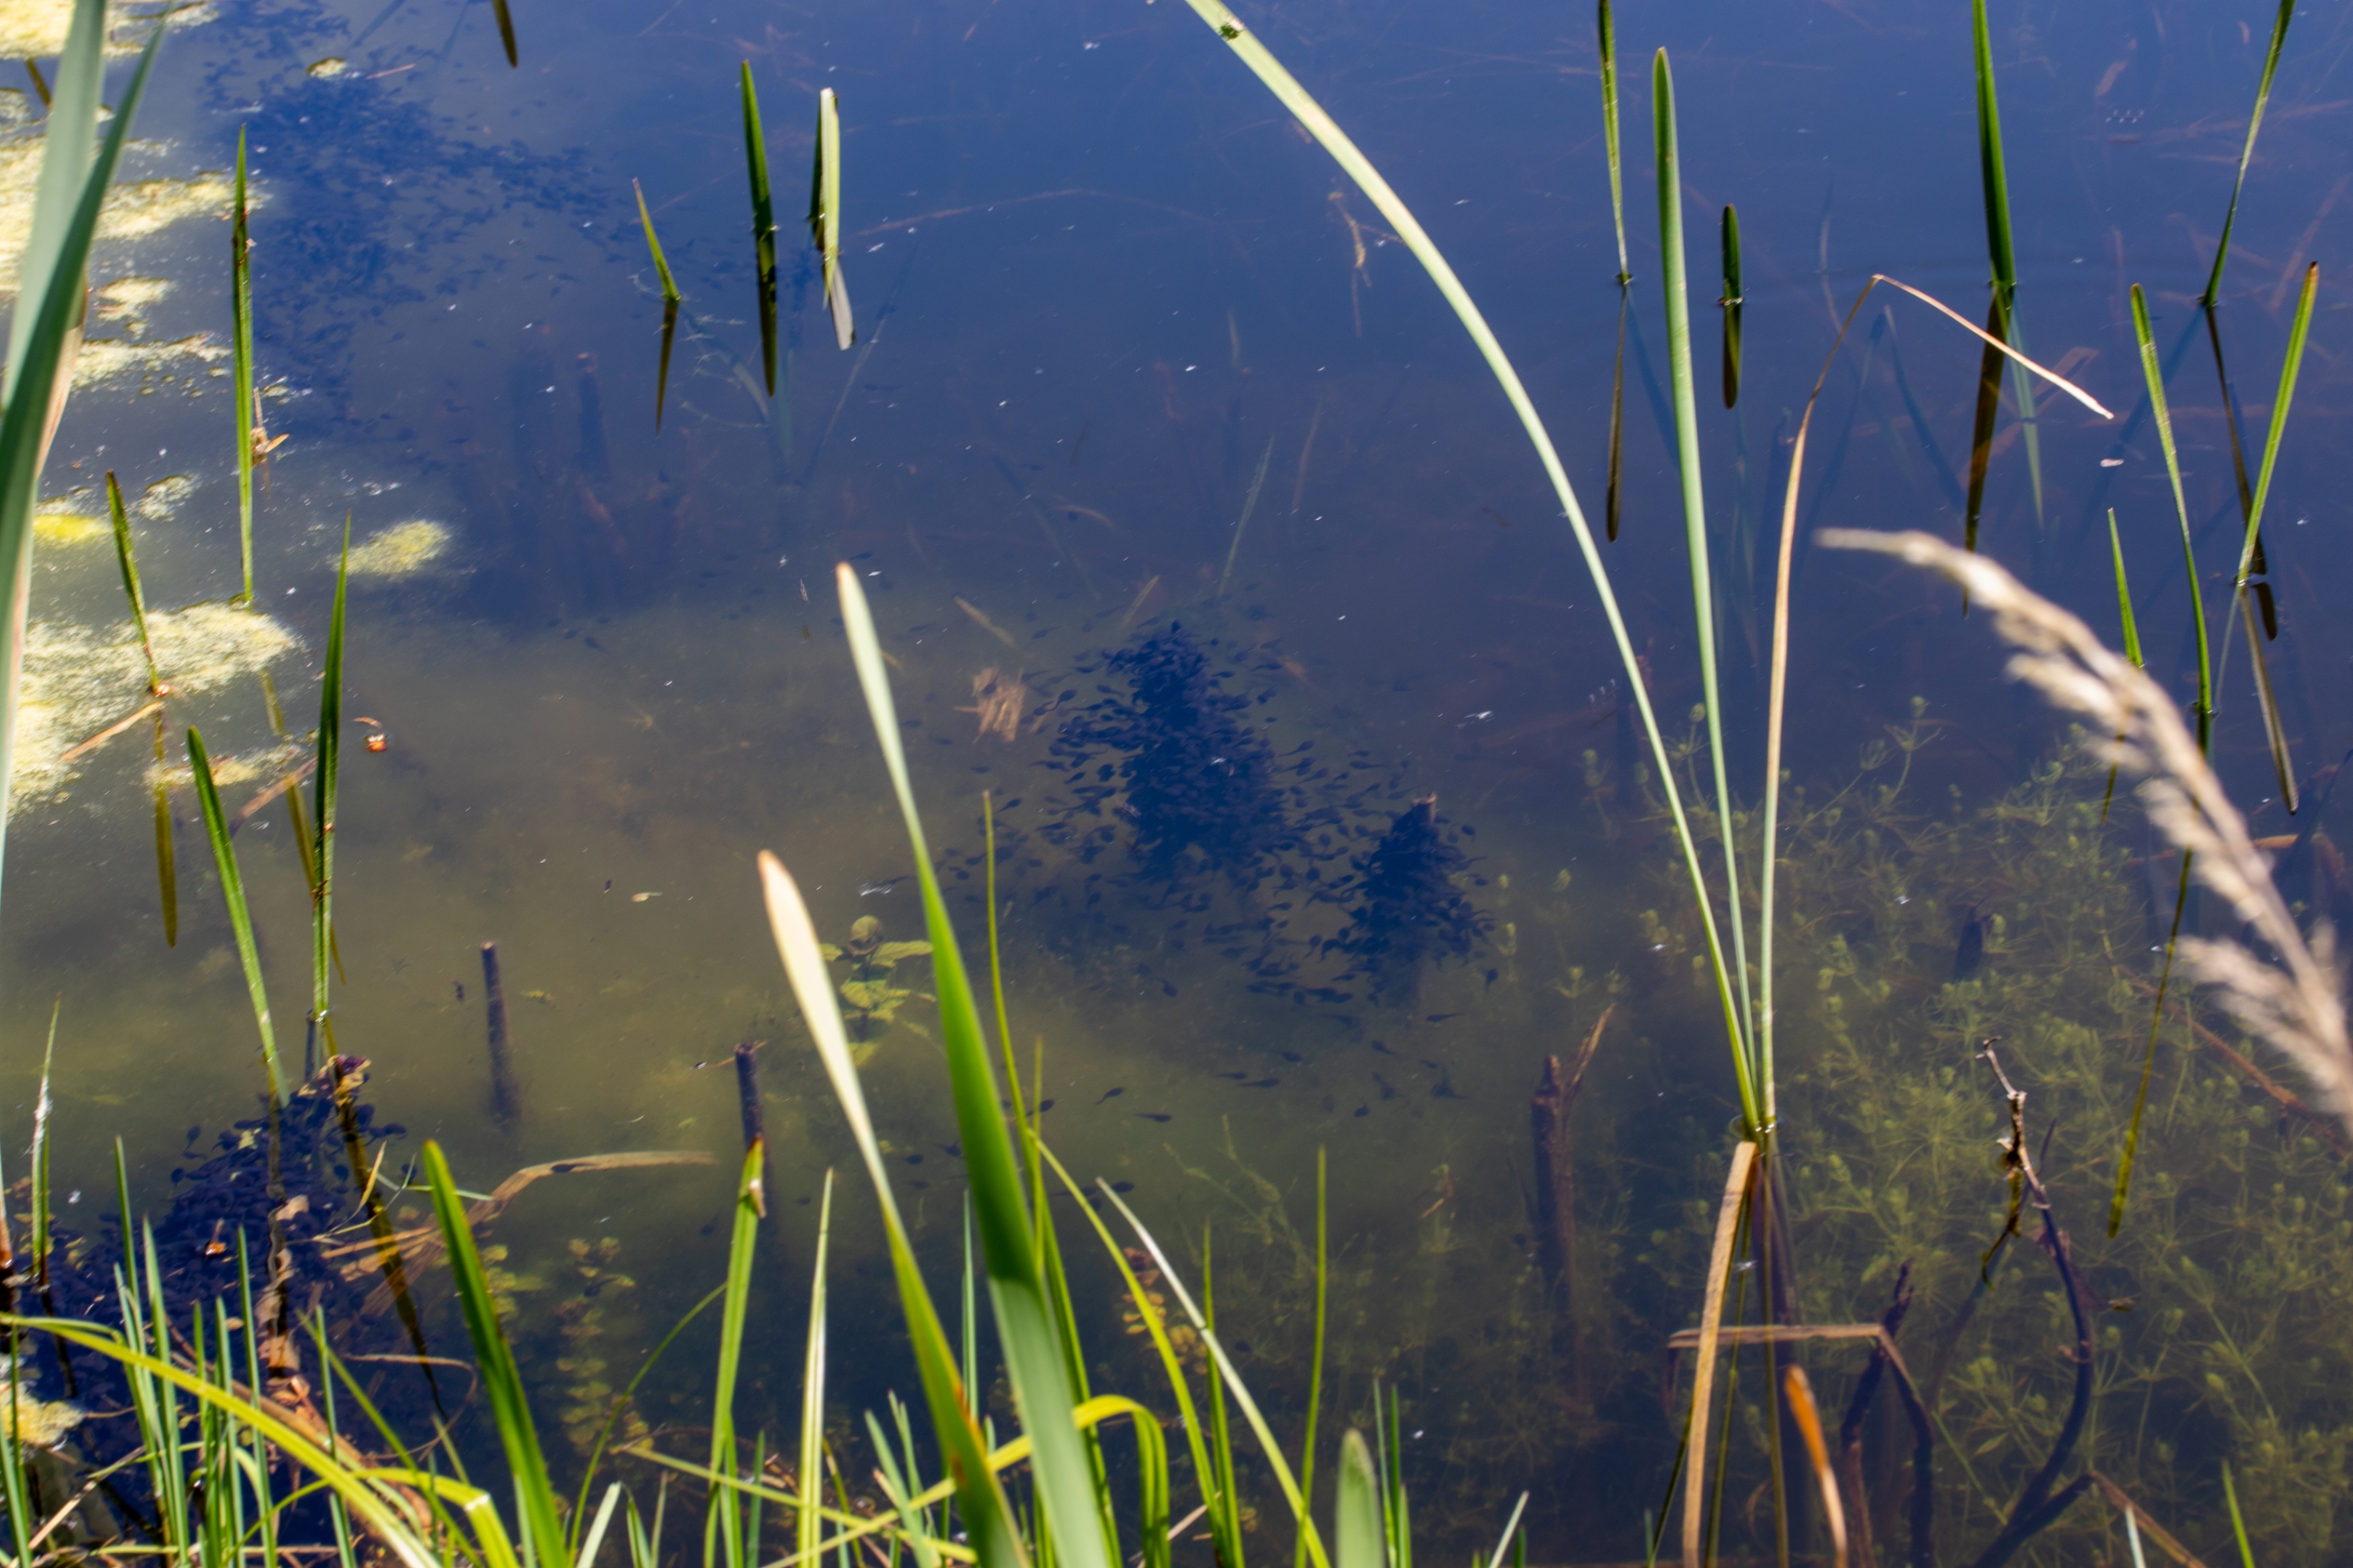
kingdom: Animalia
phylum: Chordata
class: Amphibia
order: Anura
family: Bufonidae
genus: Bufo
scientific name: Bufo bufo
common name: Skrubtudse
